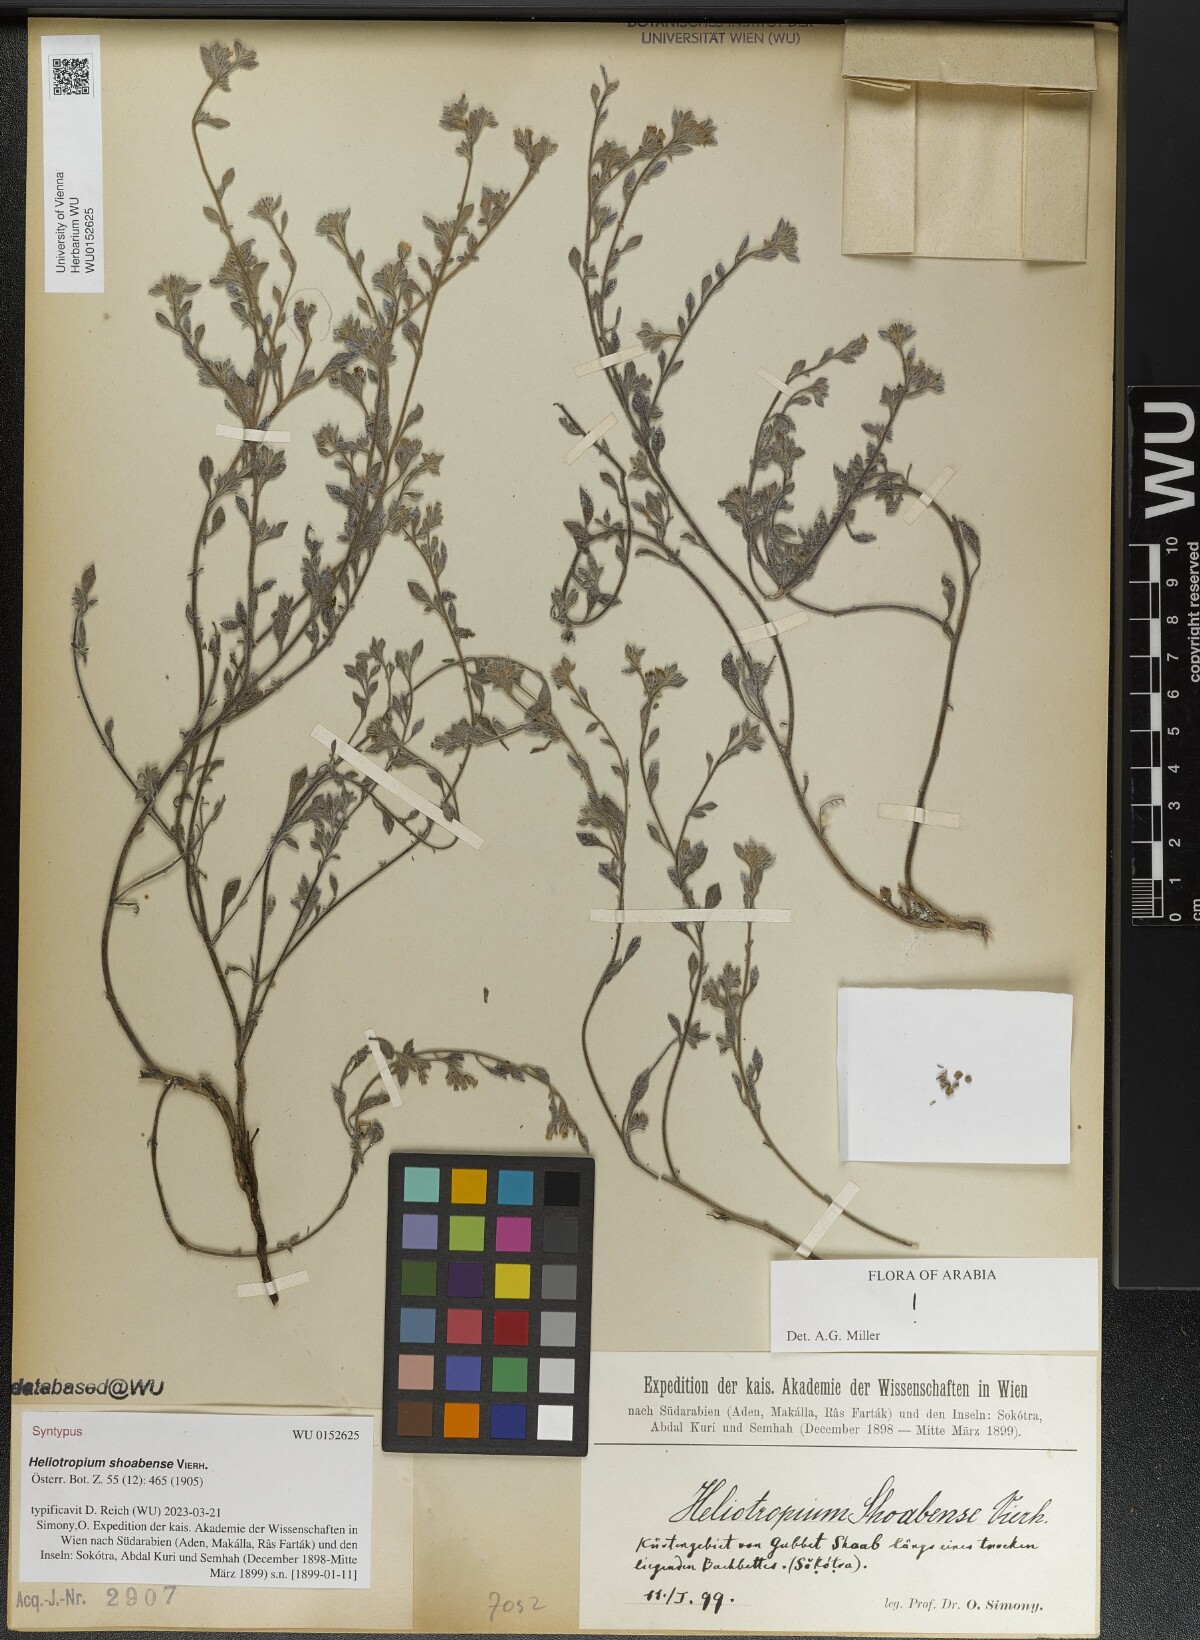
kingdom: Plantae
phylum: Tracheophyta
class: Magnoliopsida
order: Boraginales
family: Heliotropiaceae
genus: Heliotropium
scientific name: Heliotropium shoabense
